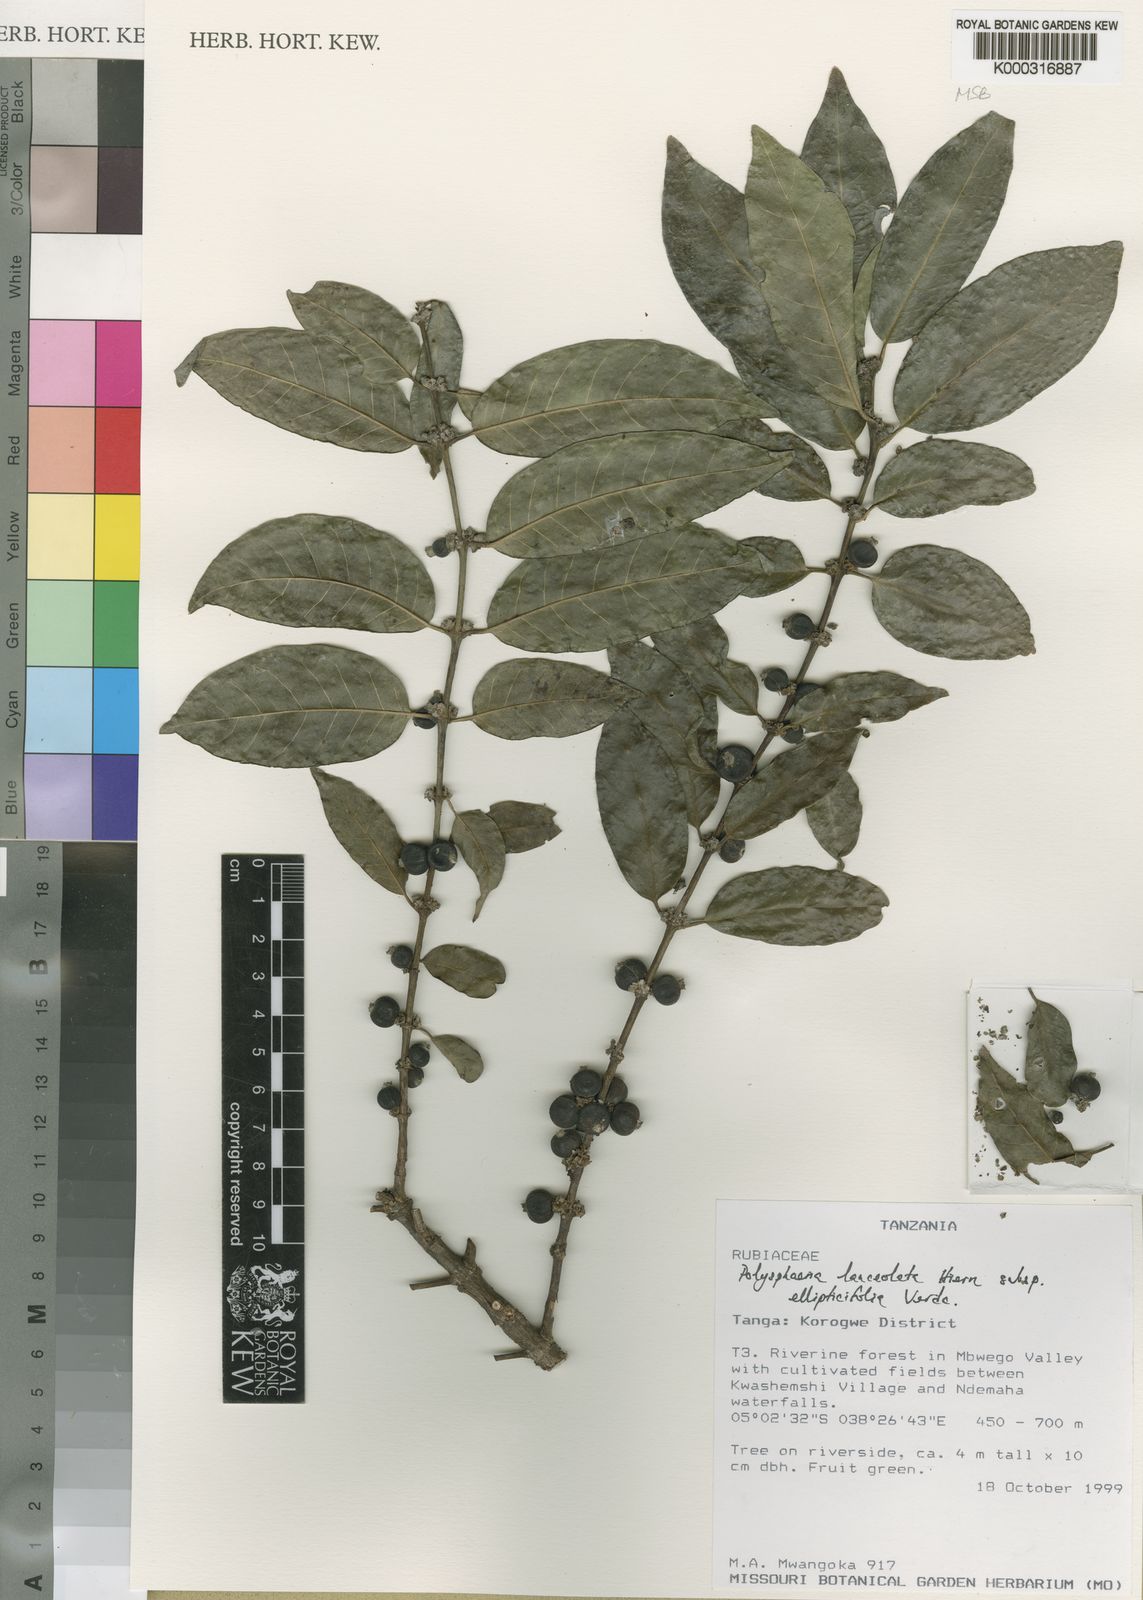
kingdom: Plantae
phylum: Tracheophyta
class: Magnoliopsida
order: Gentianales
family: Rubiaceae
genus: Polysphaeria
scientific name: Polysphaeria lanceolata
